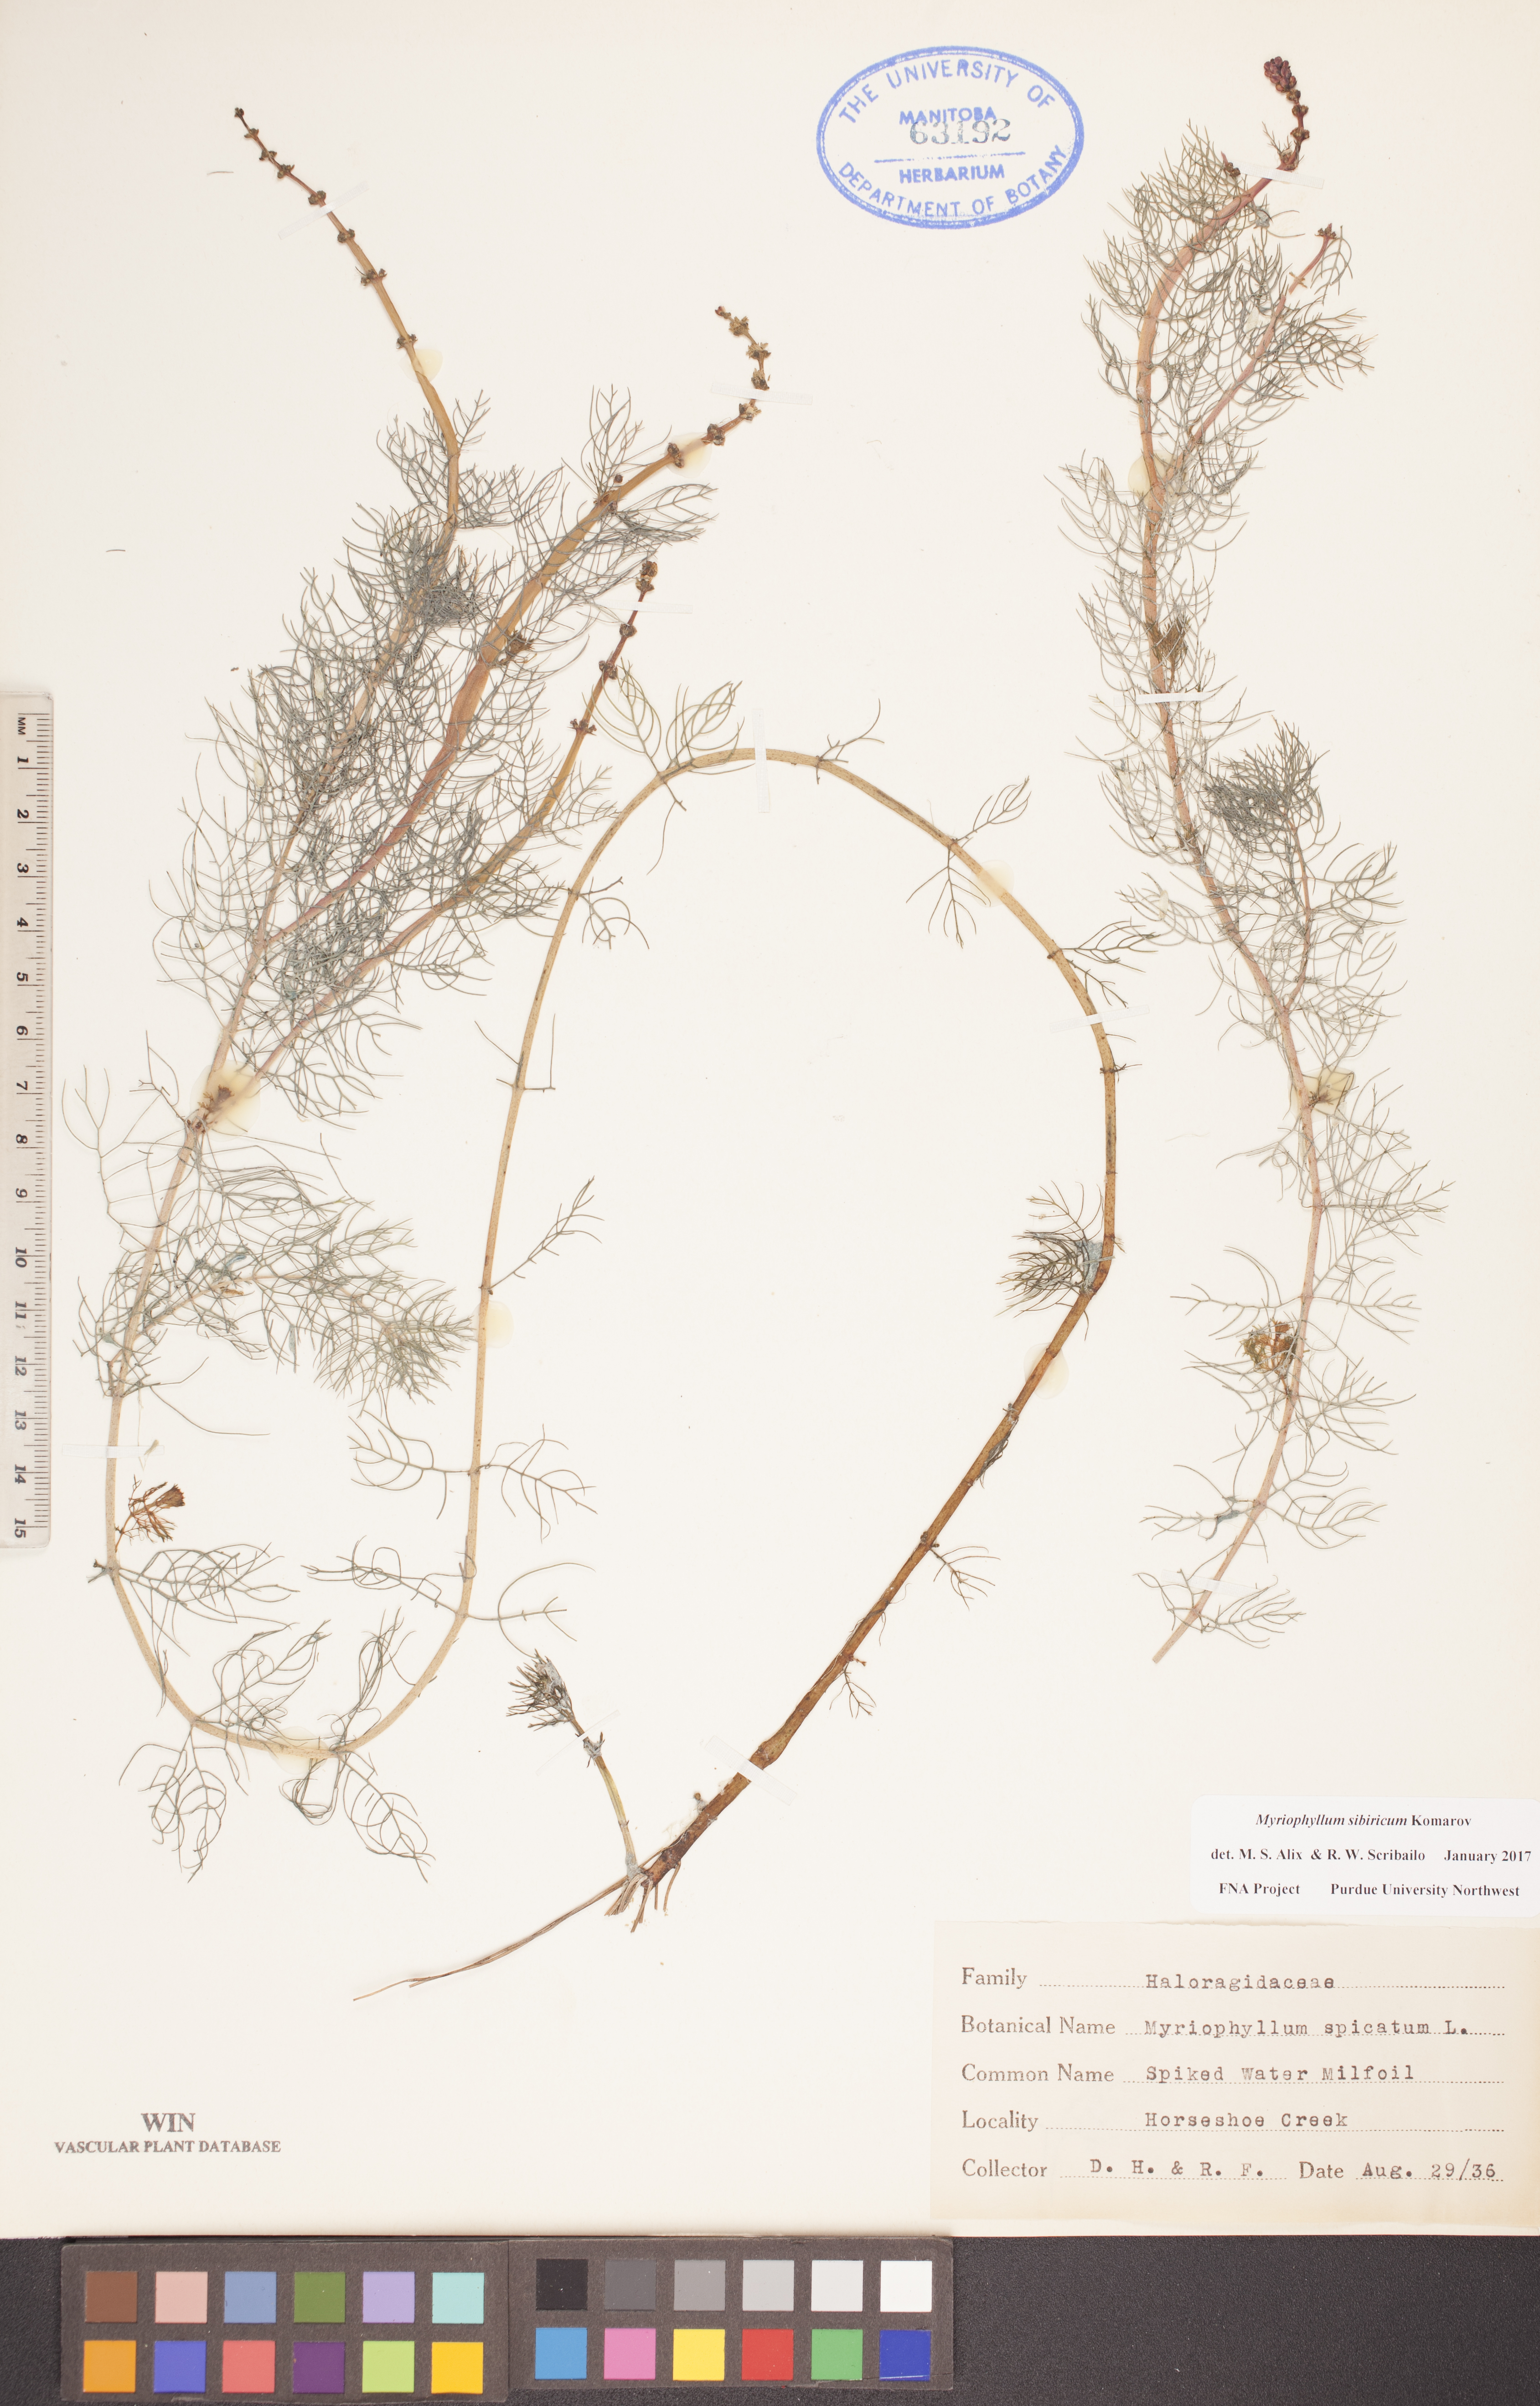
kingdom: Plantae
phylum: Tracheophyta
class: Magnoliopsida
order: Saxifragales
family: Haloragaceae
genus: Myriophyllum
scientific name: Myriophyllum sibiricum
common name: Siberian water-milfoil
